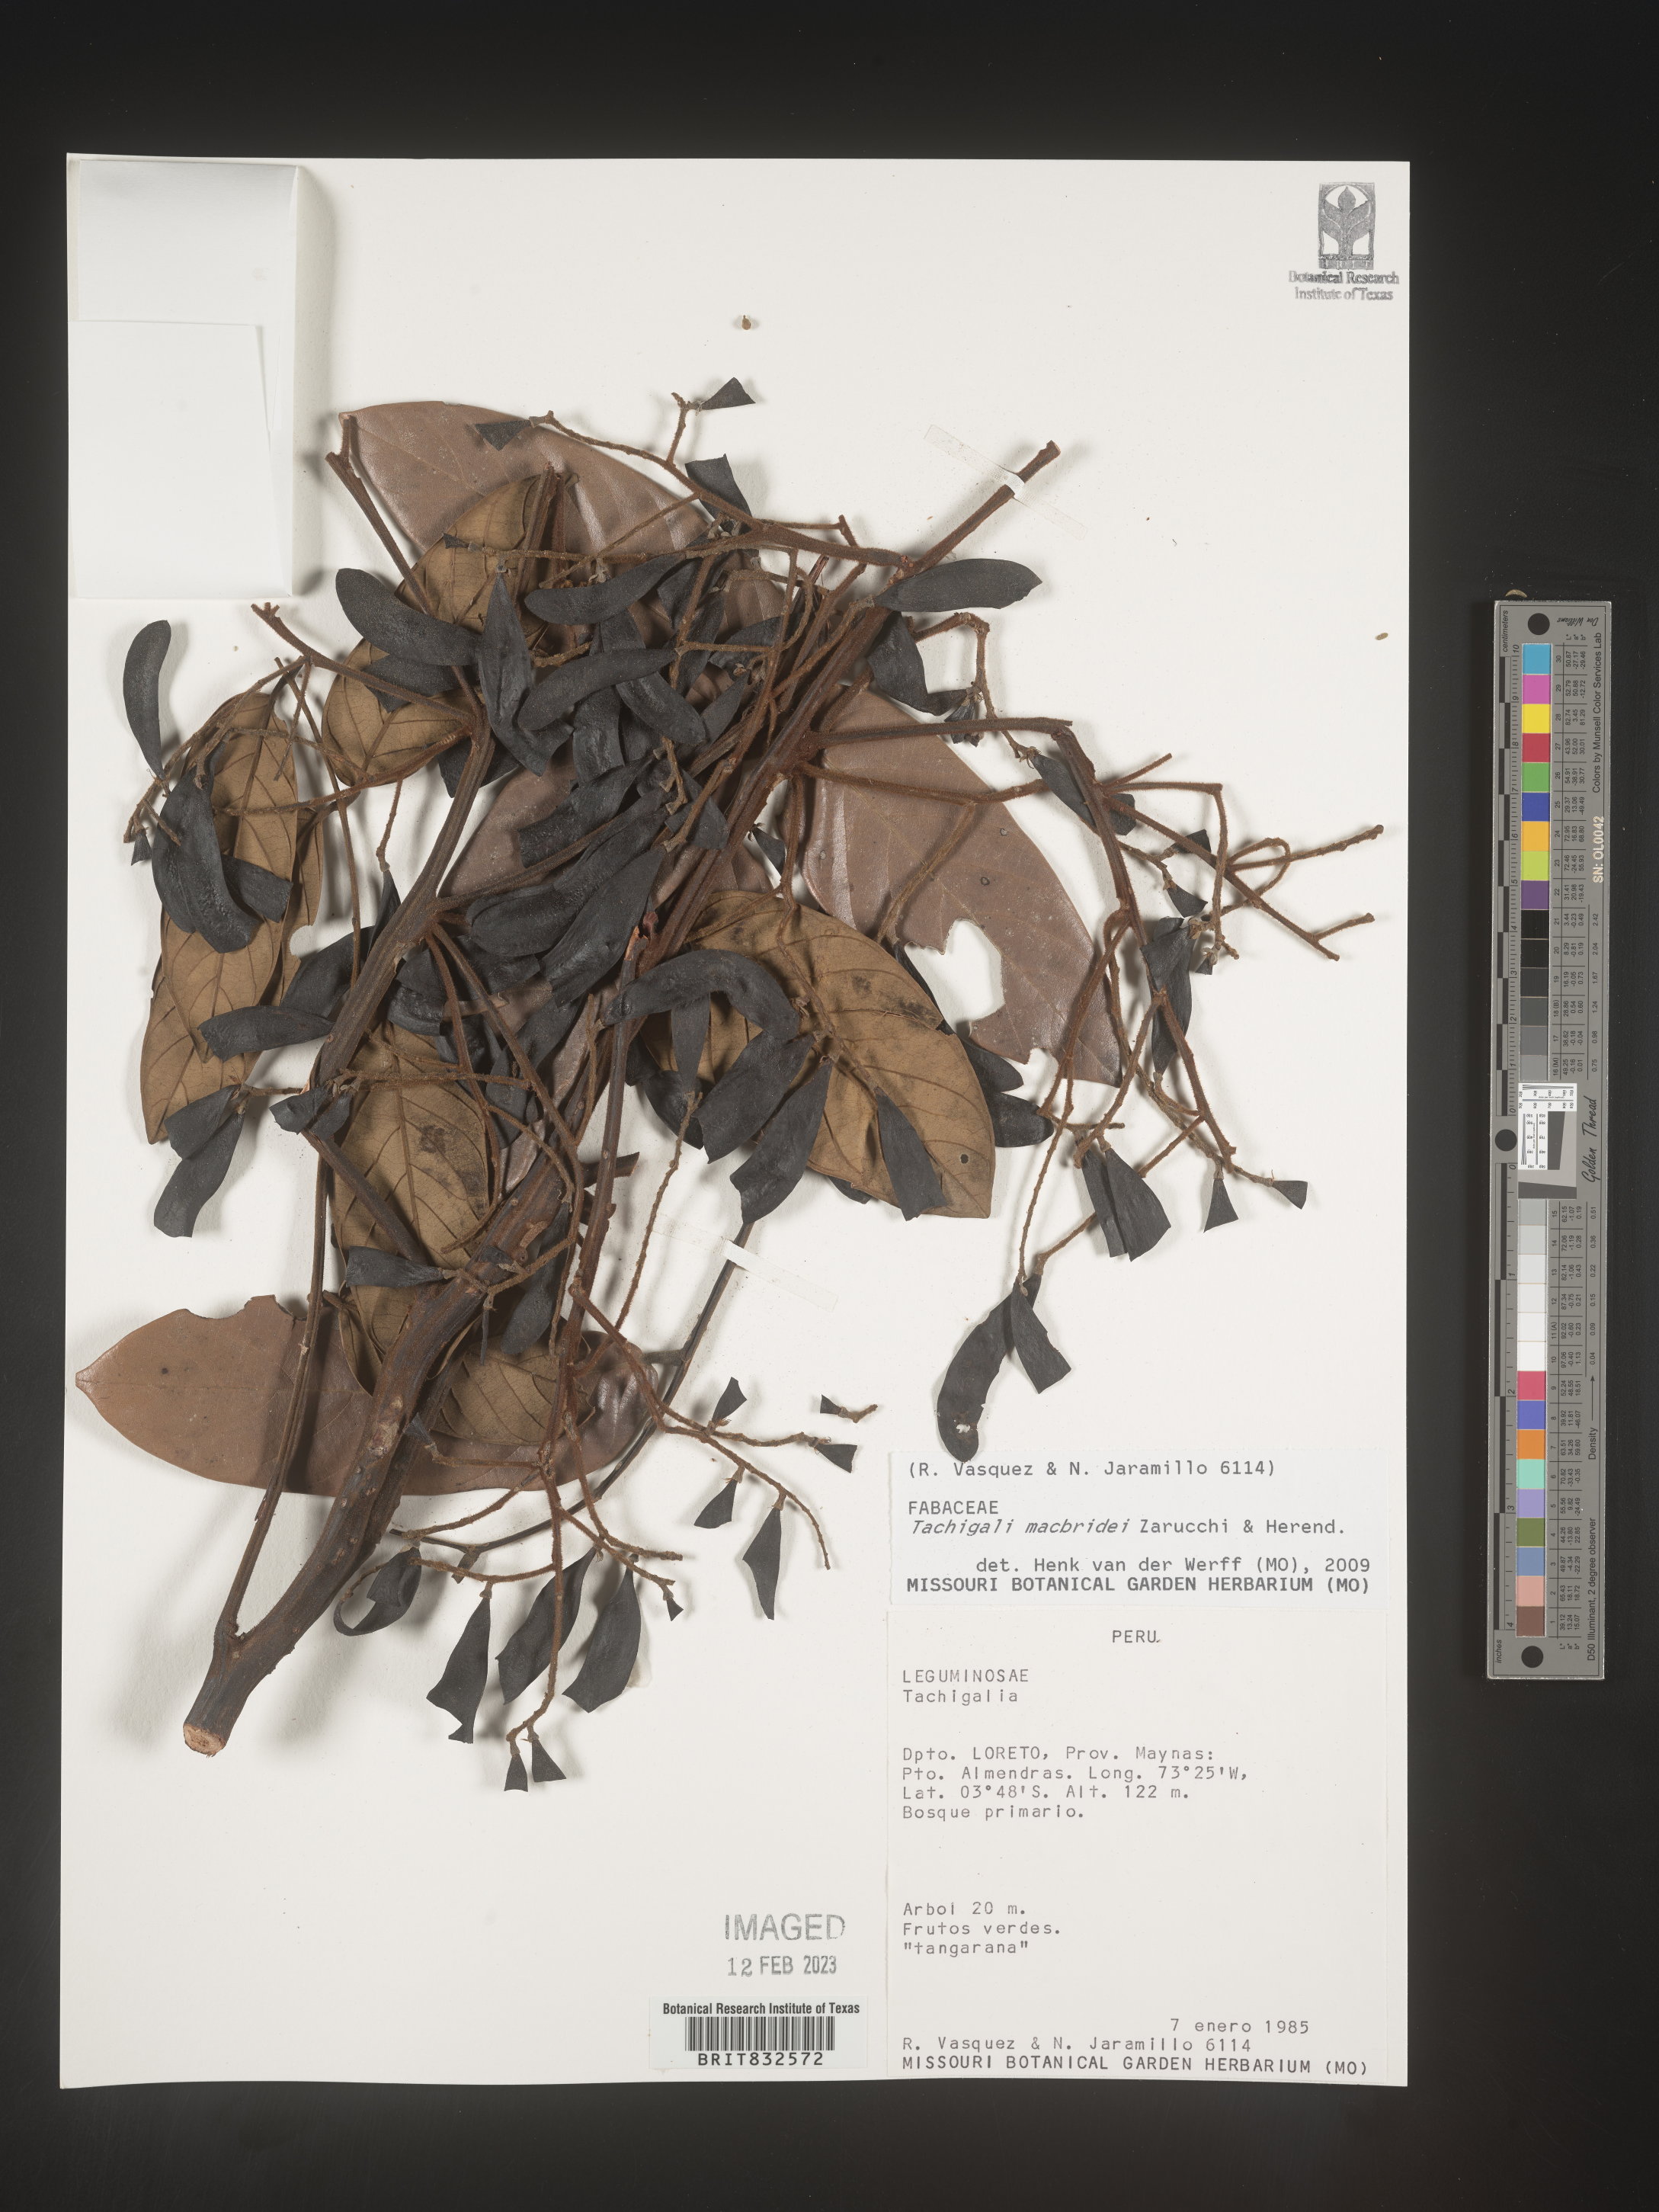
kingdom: Plantae
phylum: Tracheophyta
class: Magnoliopsida
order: Fabales
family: Fabaceae
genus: Tachigali
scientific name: Tachigali macbridei
